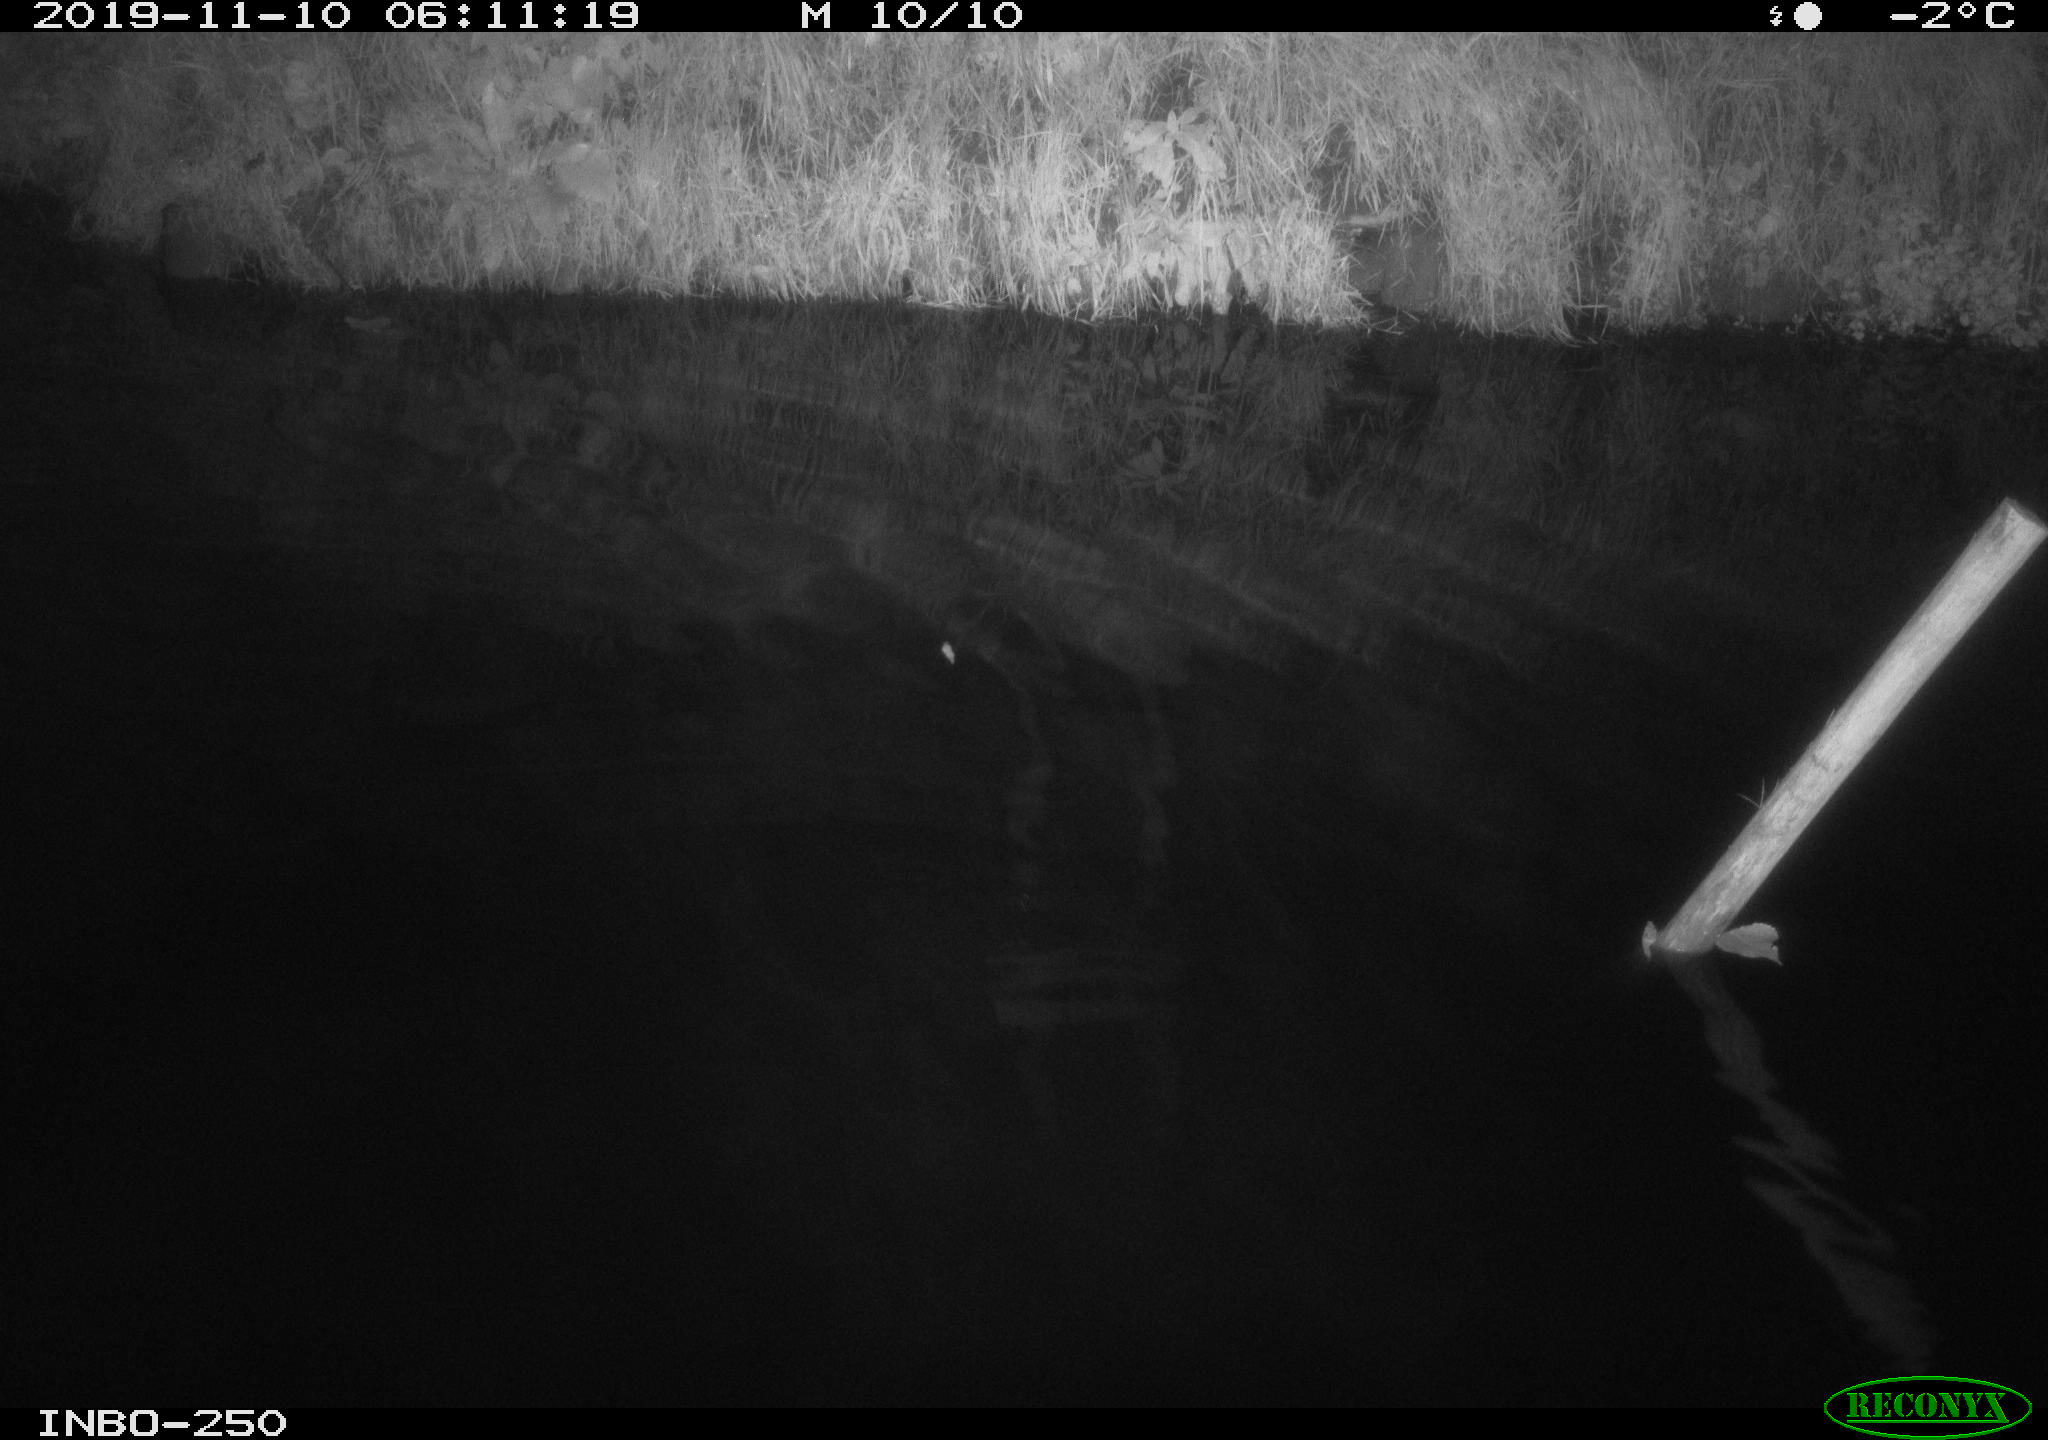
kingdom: Animalia
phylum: Chordata
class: Aves
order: Anseriformes
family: Anatidae
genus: Anas
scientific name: Anas platyrhynchos
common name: Mallard
